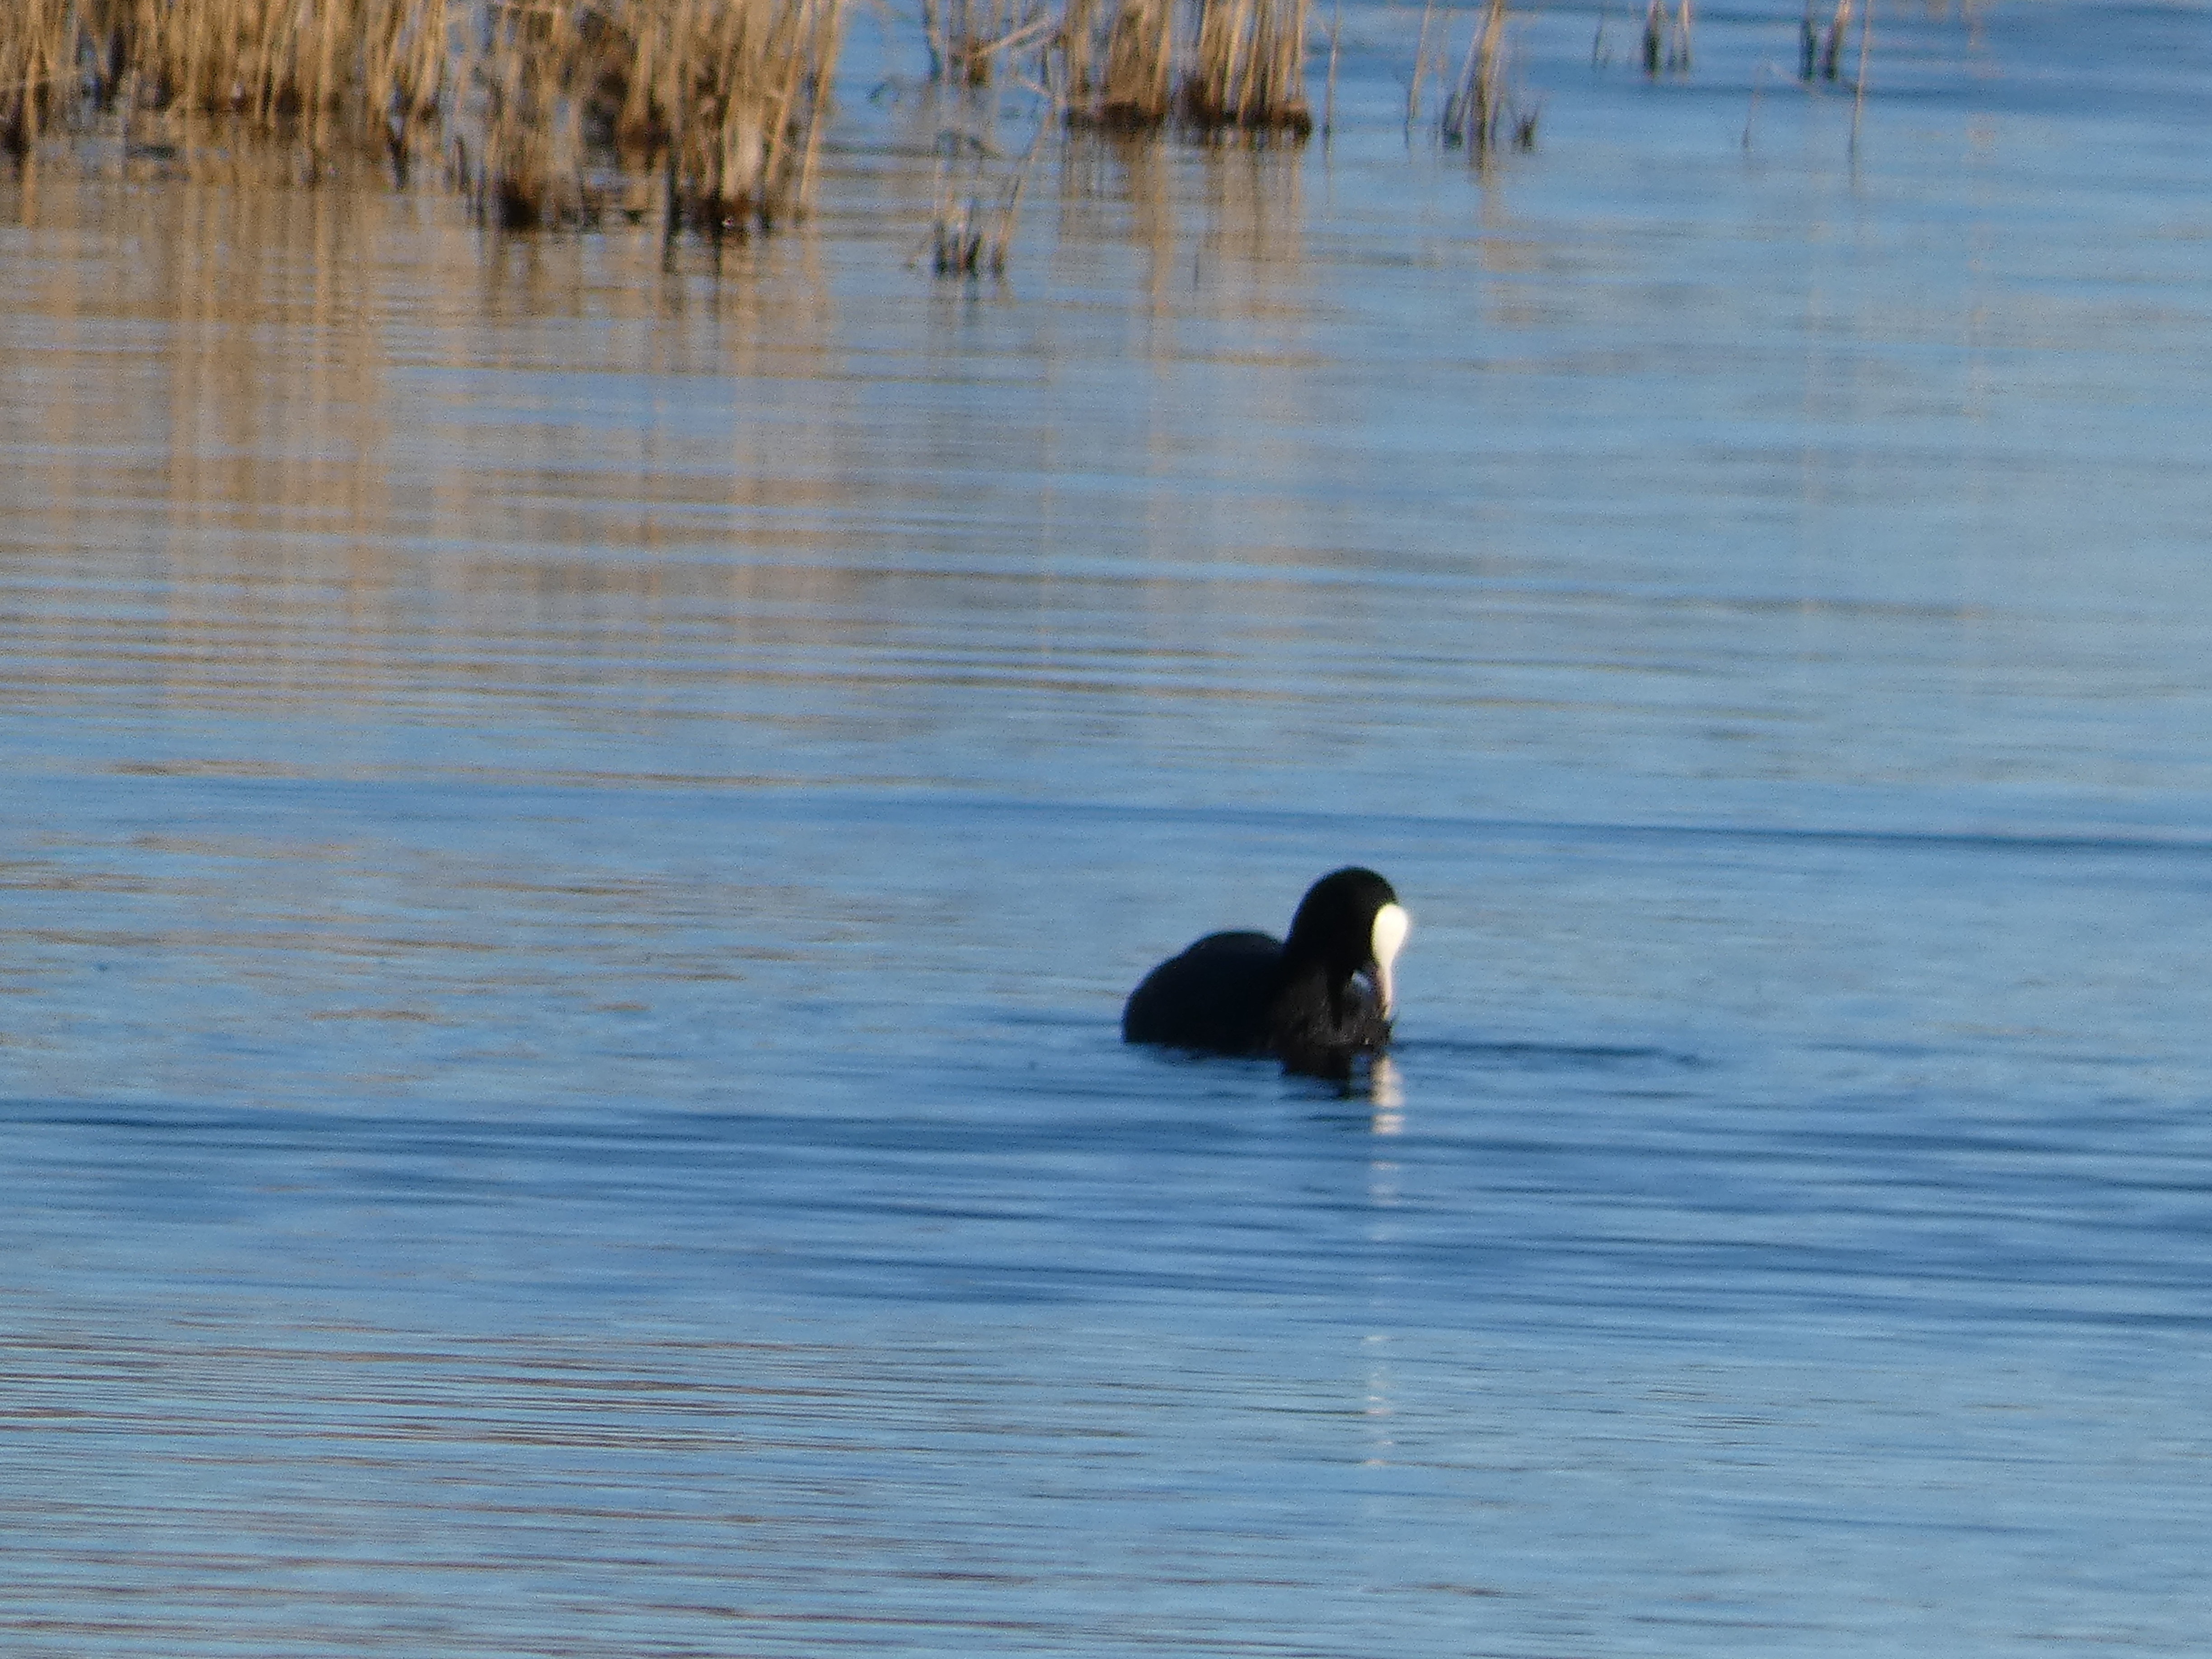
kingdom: Animalia
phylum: Chordata
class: Aves
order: Gruiformes
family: Rallidae
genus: Fulica
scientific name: Fulica atra
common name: Blishøne
